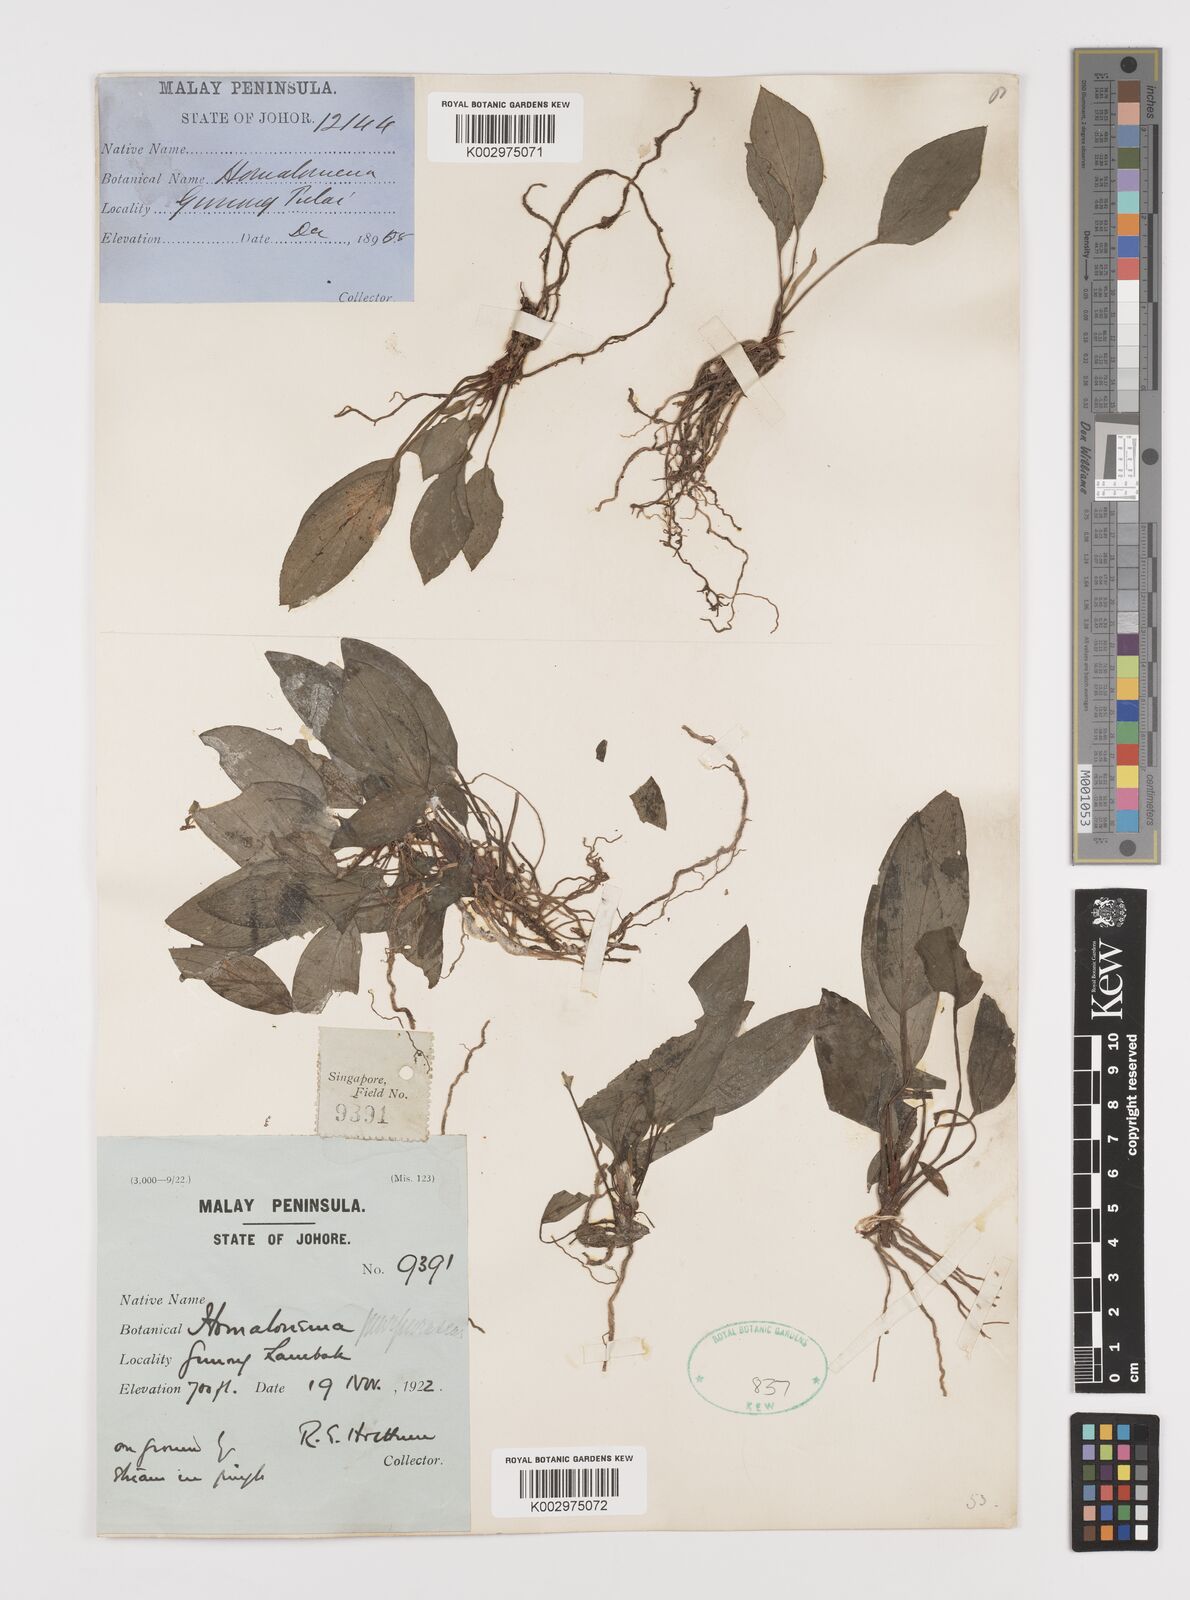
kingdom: Plantae
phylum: Tracheophyta
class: Liliopsida
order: Alismatales
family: Araceae
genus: Homalomena
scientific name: Homalomena humilis
